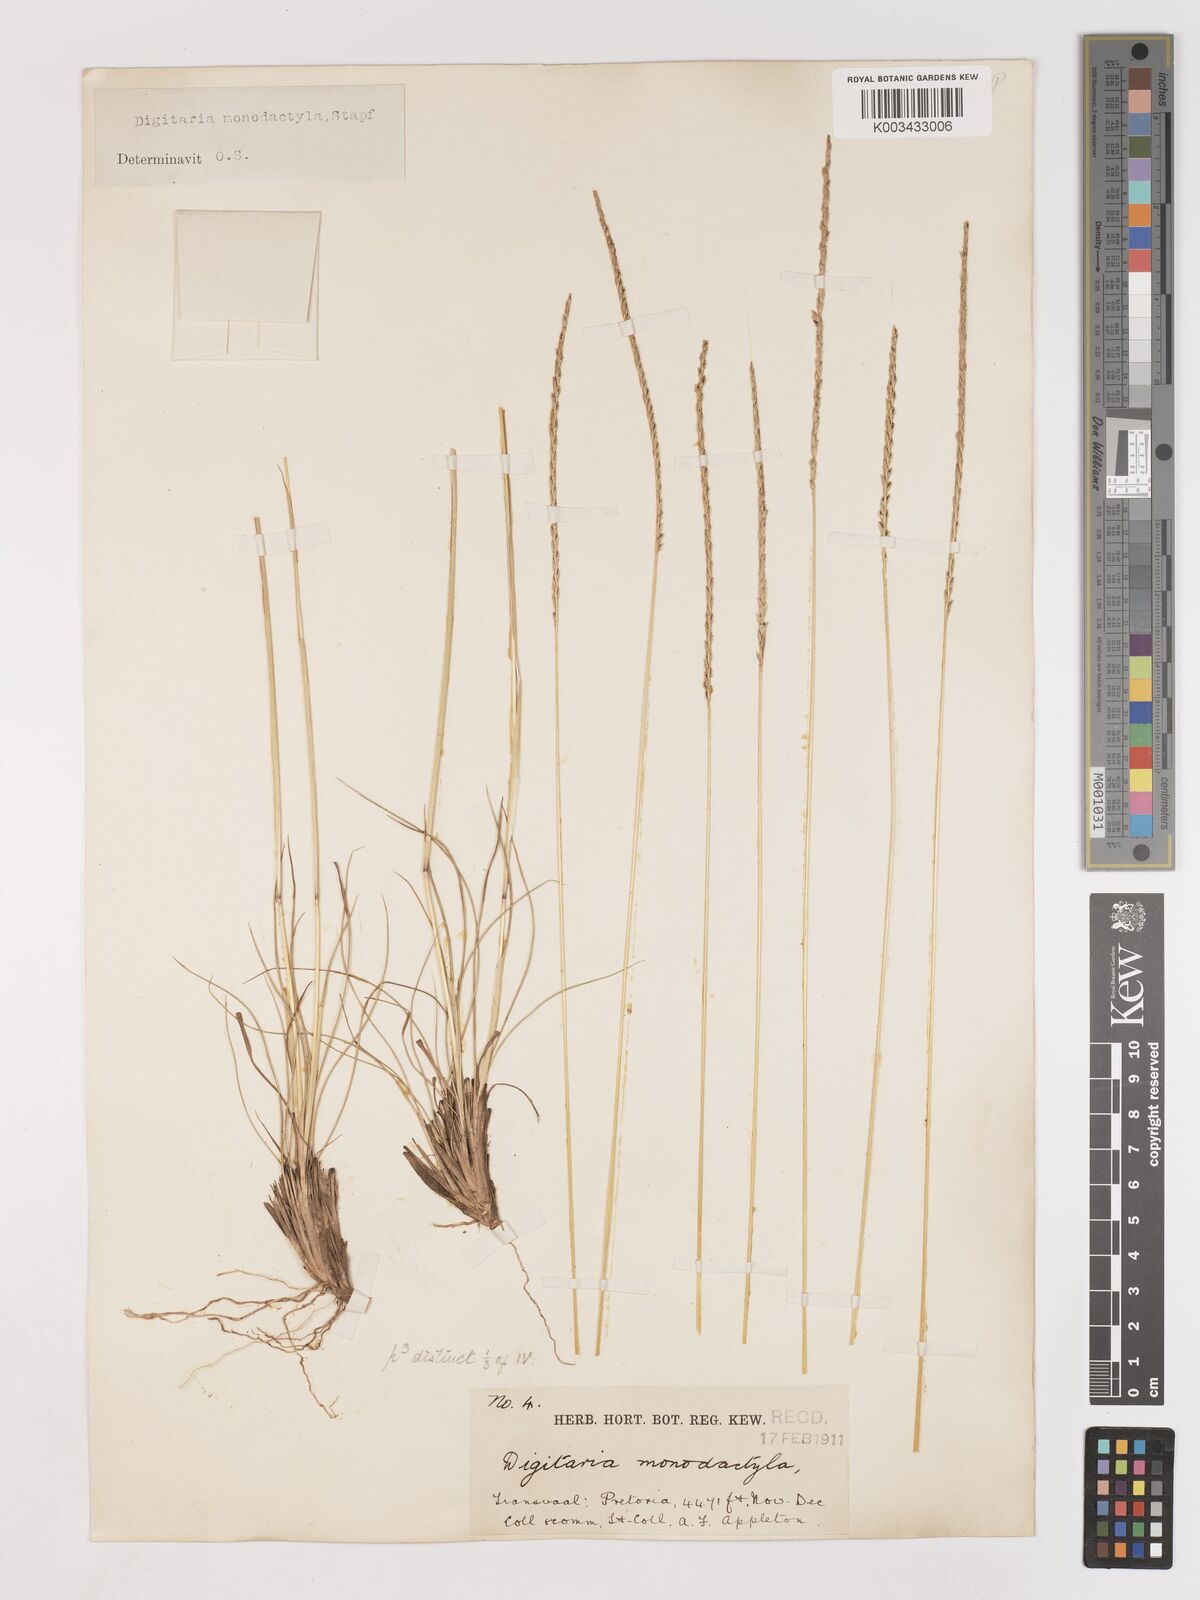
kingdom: Plantae
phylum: Tracheophyta
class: Liliopsida
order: Poales
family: Poaceae
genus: Digitaria
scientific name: Digitaria monodactyla
